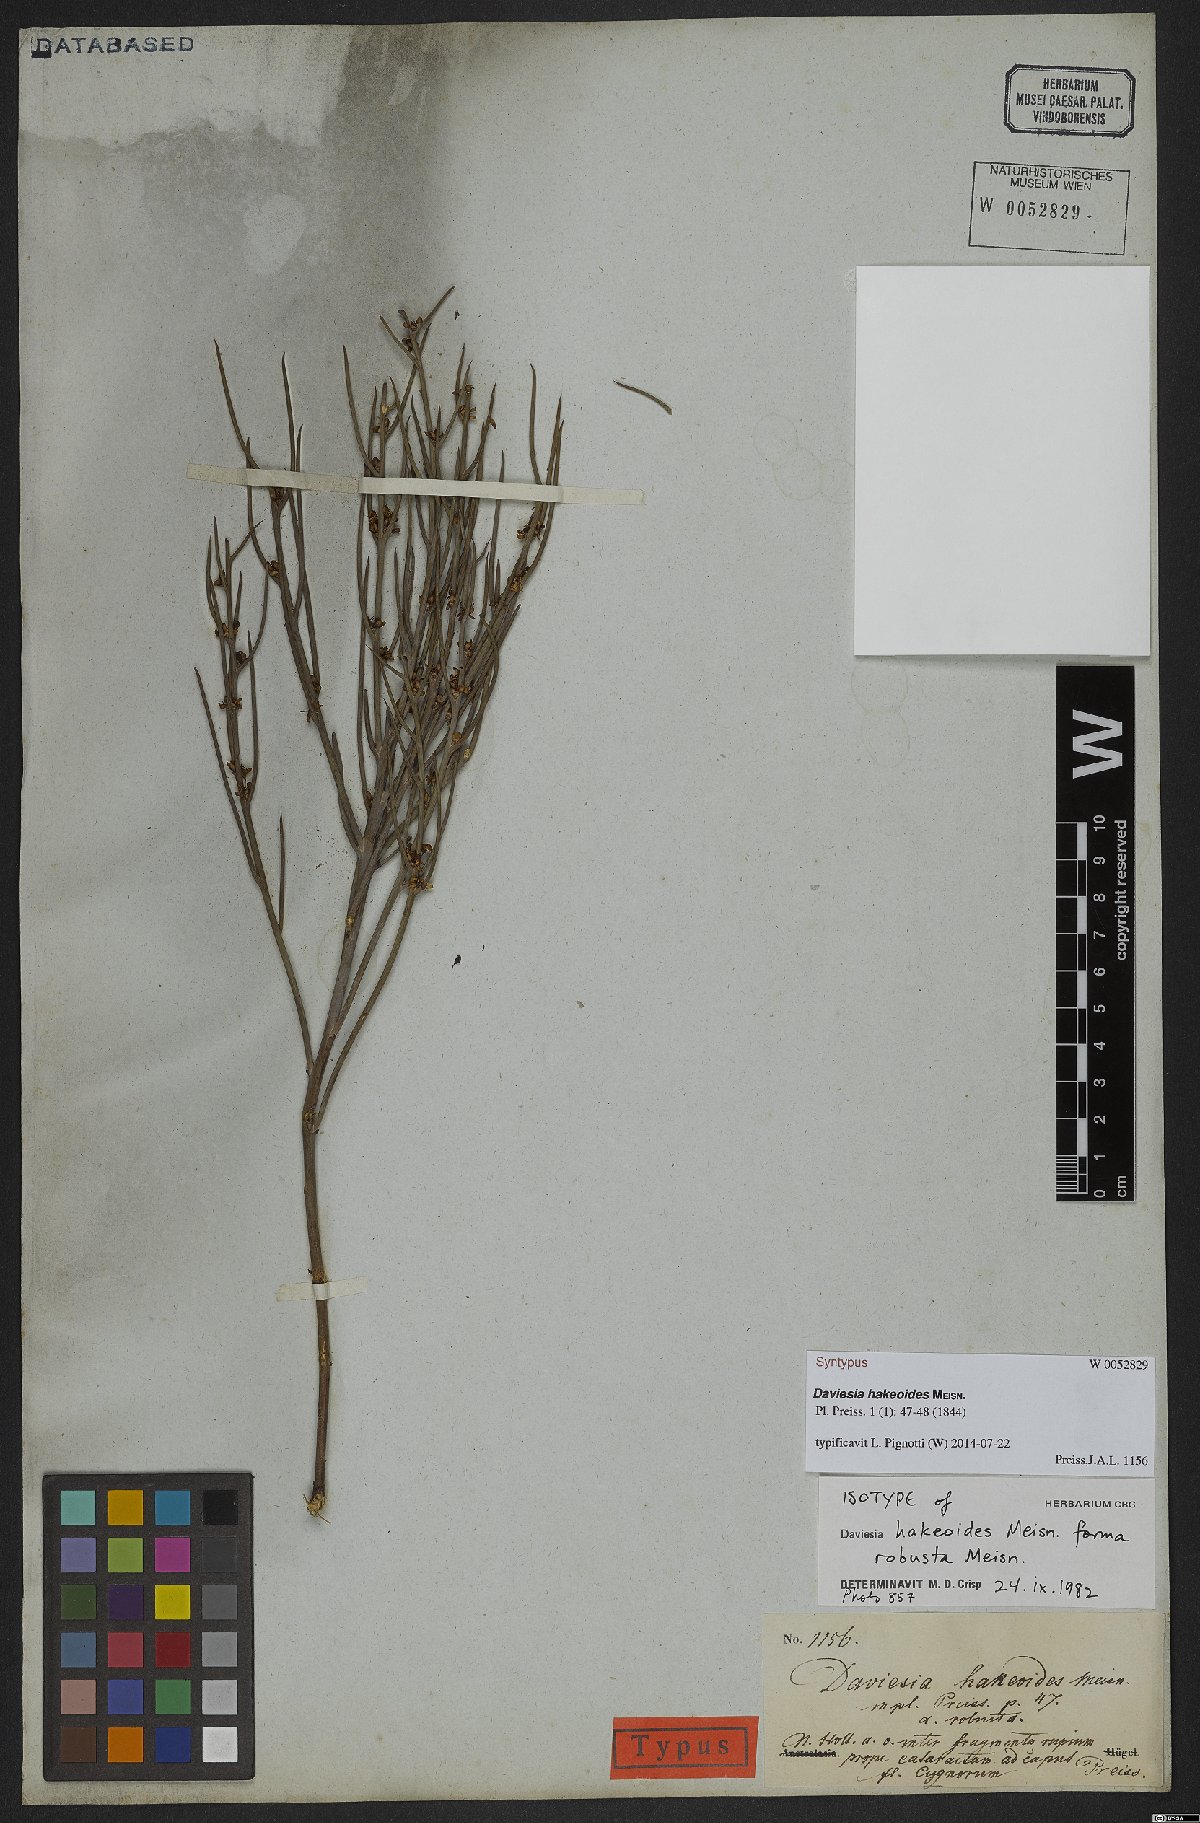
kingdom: Plantae
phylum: Tracheophyta
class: Magnoliopsida
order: Fabales
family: Fabaceae
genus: Daviesia
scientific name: Daviesia hakeoides
